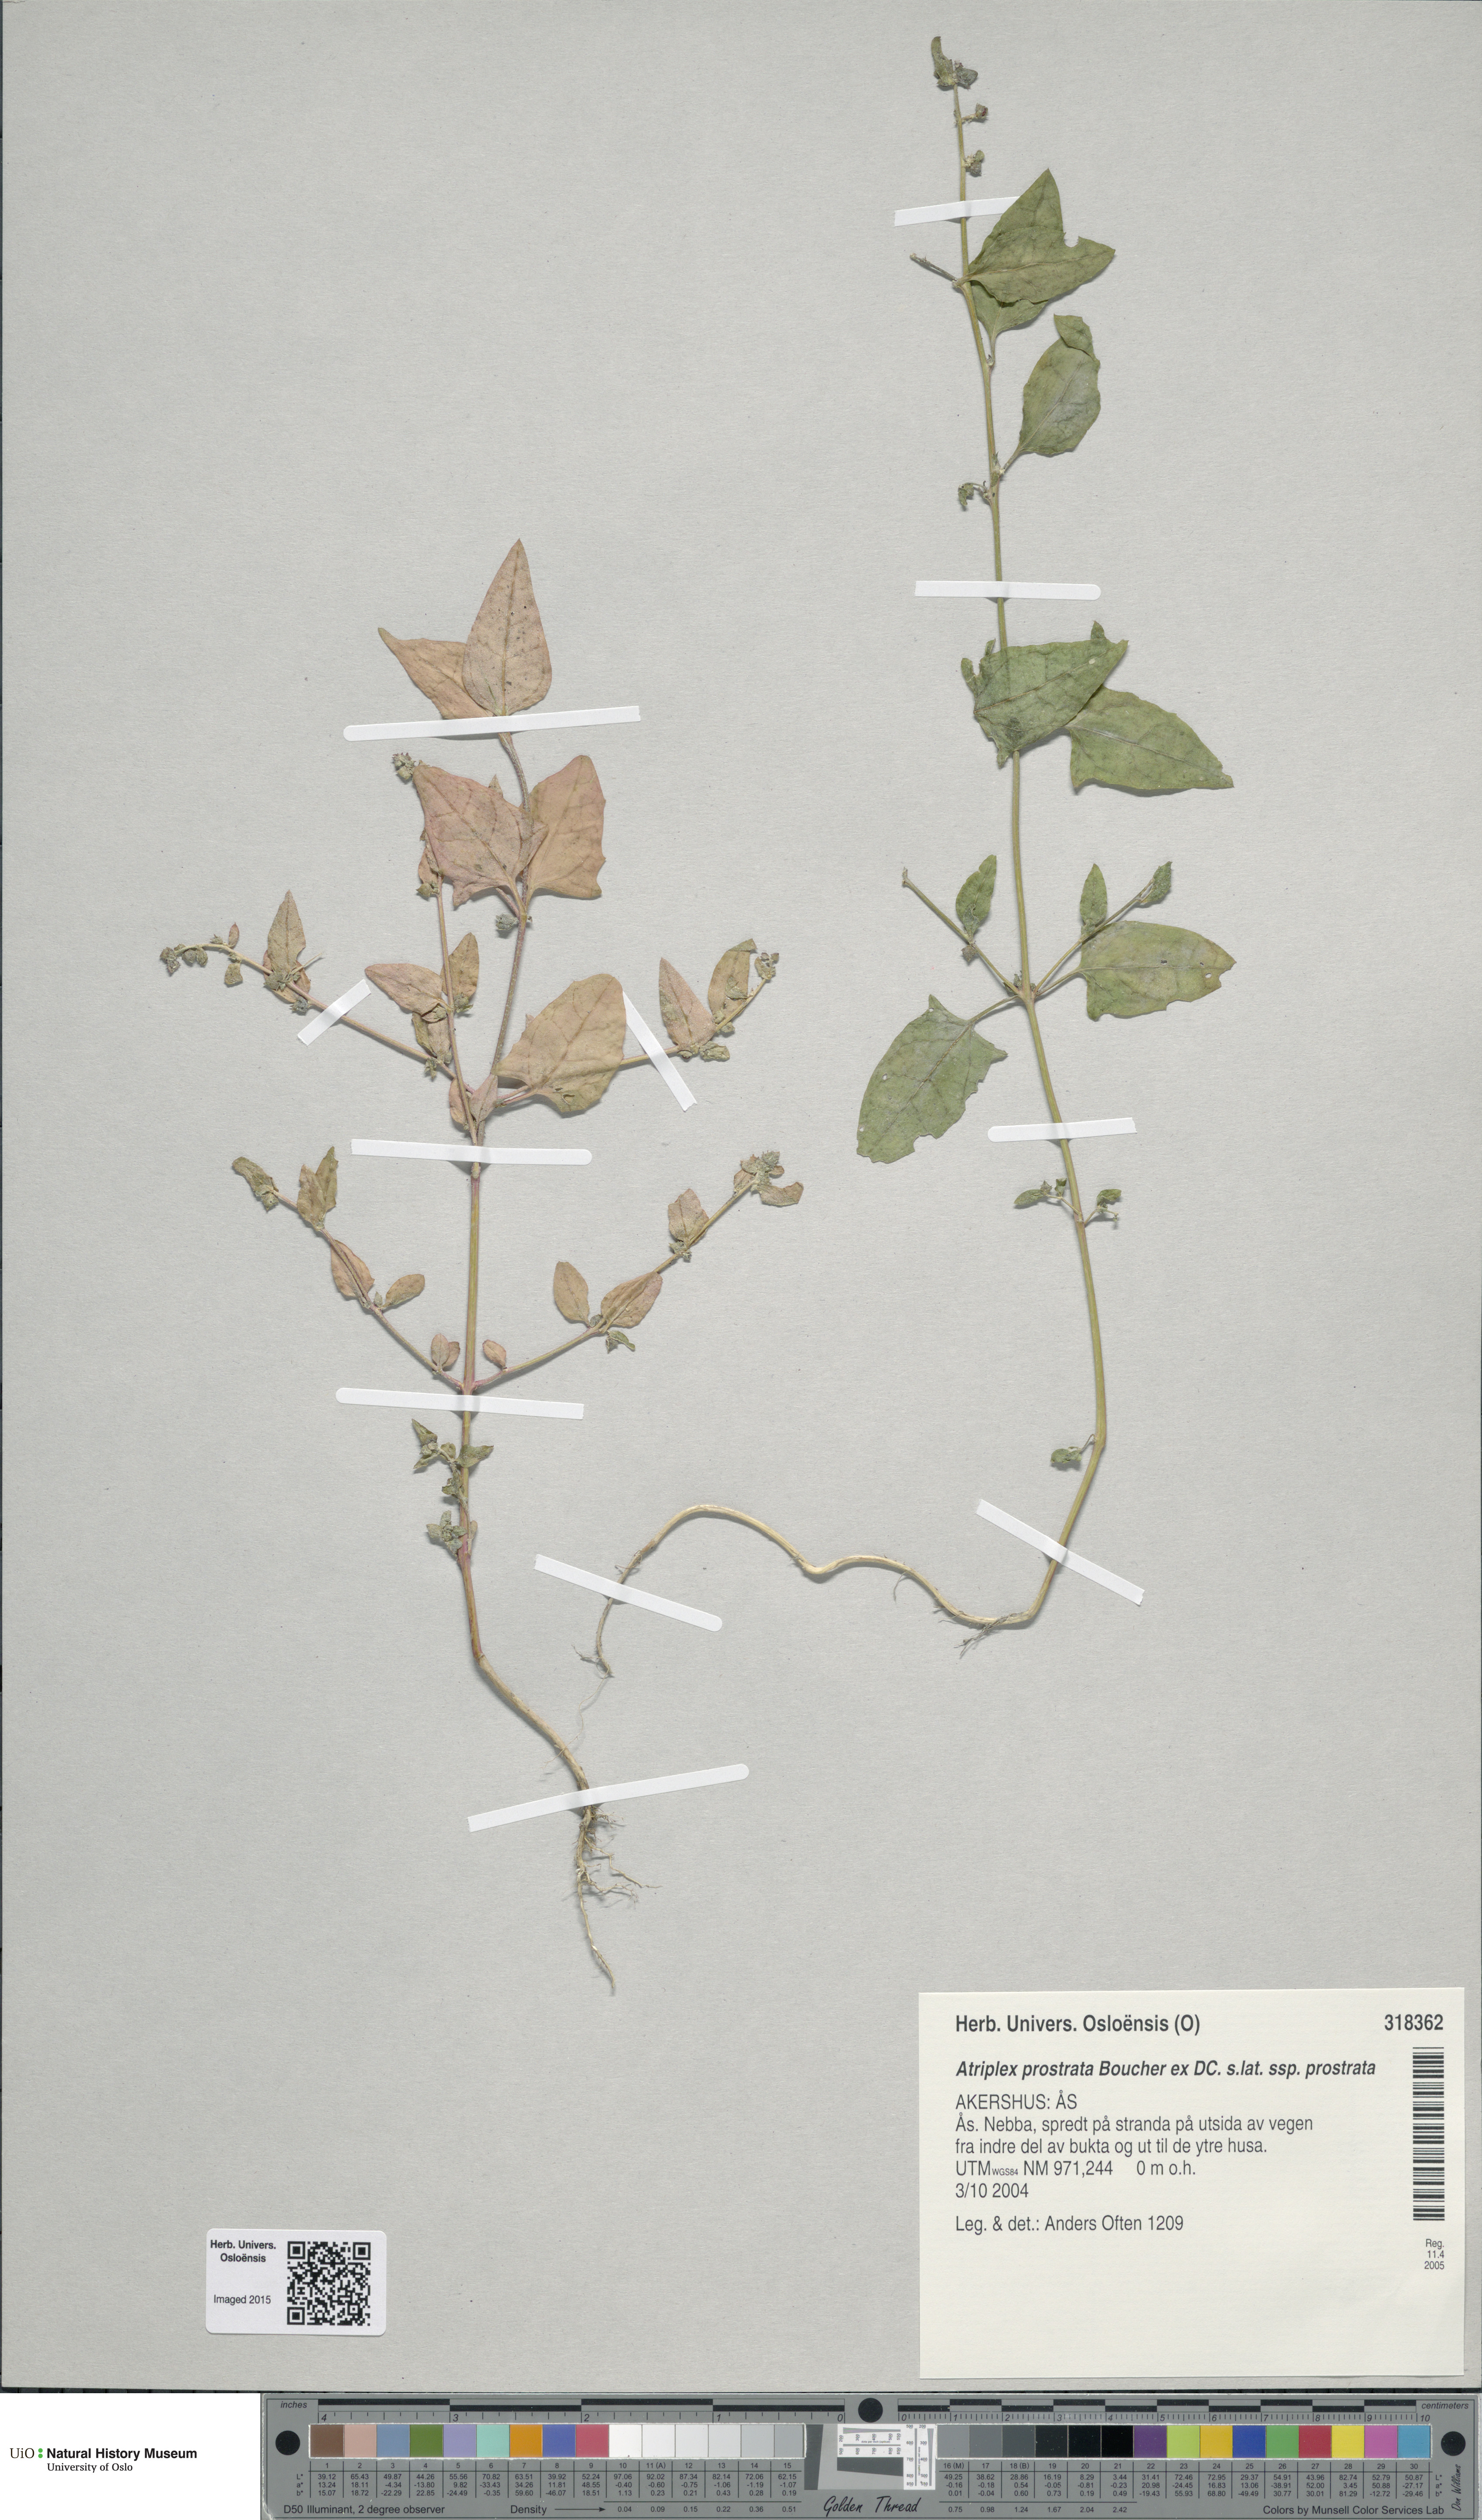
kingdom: Plantae
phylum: Tracheophyta
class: Magnoliopsida
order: Caryophyllales
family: Amaranthaceae
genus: Atriplex
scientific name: Atriplex prostrata
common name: Spear-leaved orache
